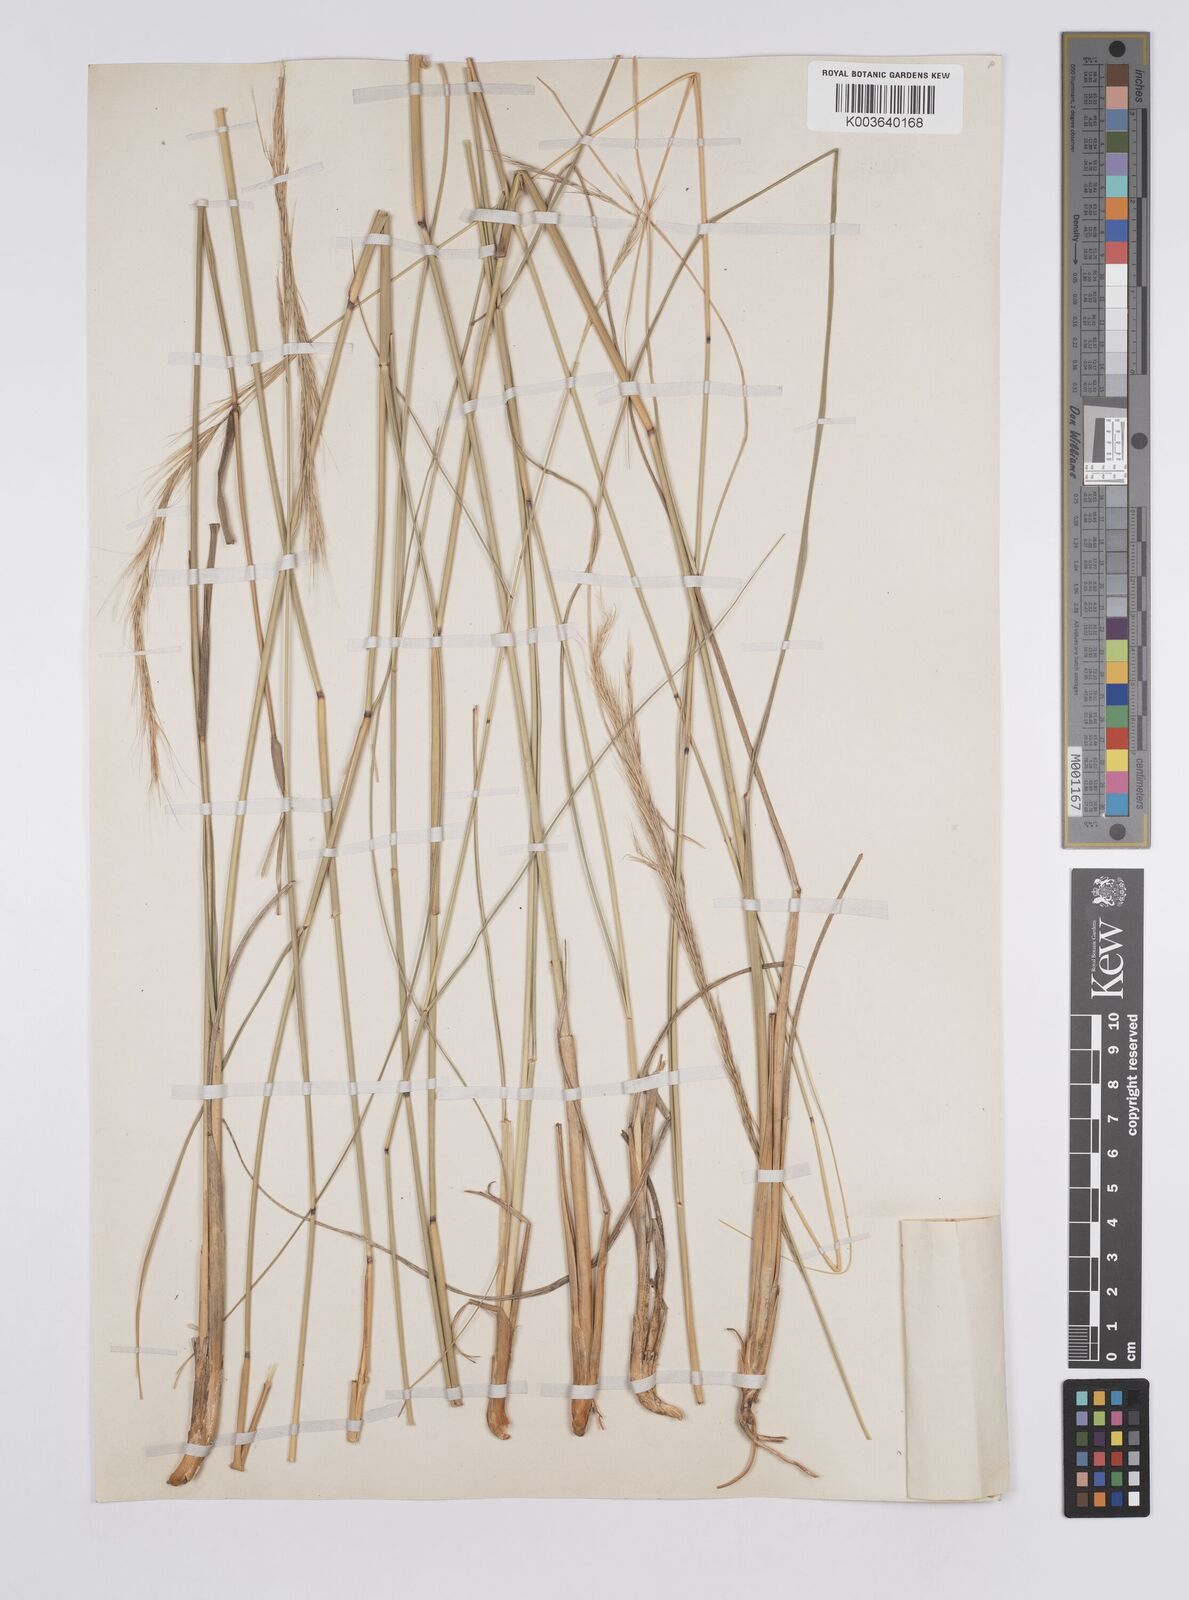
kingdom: Plantae
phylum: Tracheophyta
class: Liliopsida
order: Poales
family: Poaceae
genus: Aristida
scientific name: Aristida pilgeri
